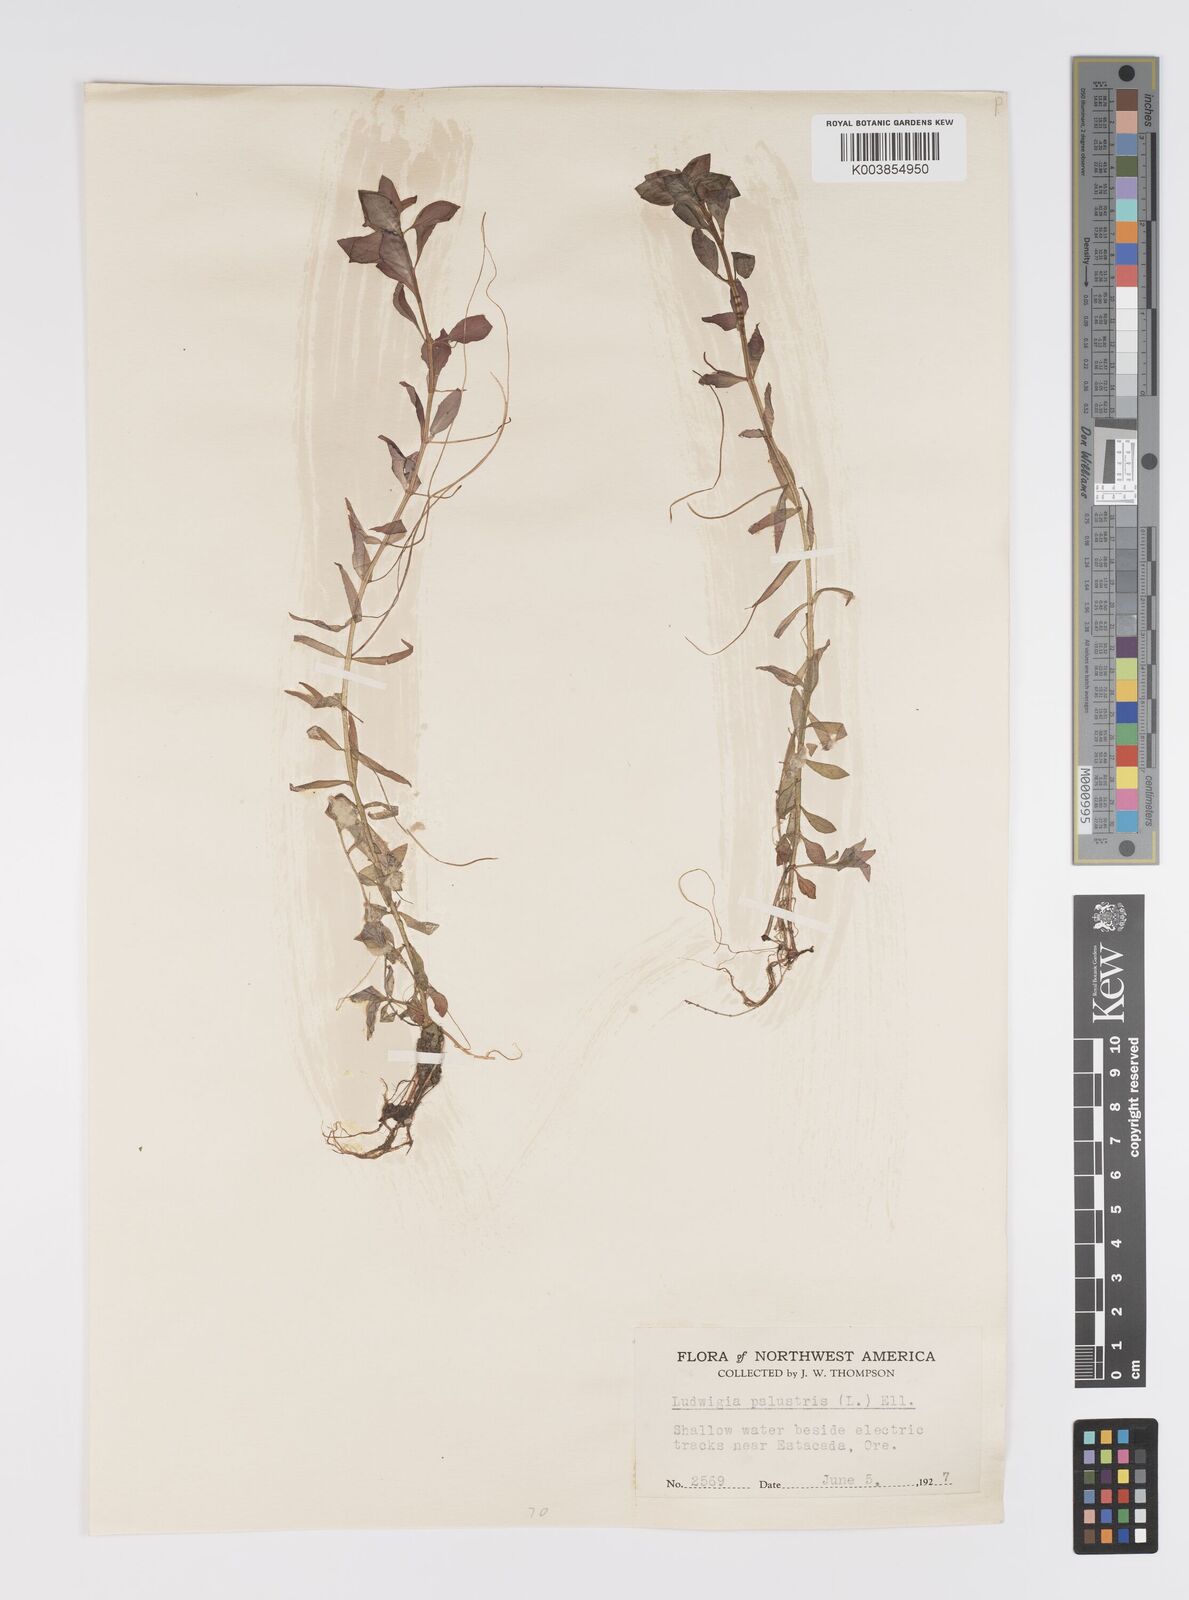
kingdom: Plantae
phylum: Tracheophyta
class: Magnoliopsida
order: Myrtales
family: Onagraceae
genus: Ludwigia
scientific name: Ludwigia palustris
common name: Hampshire-purslane
